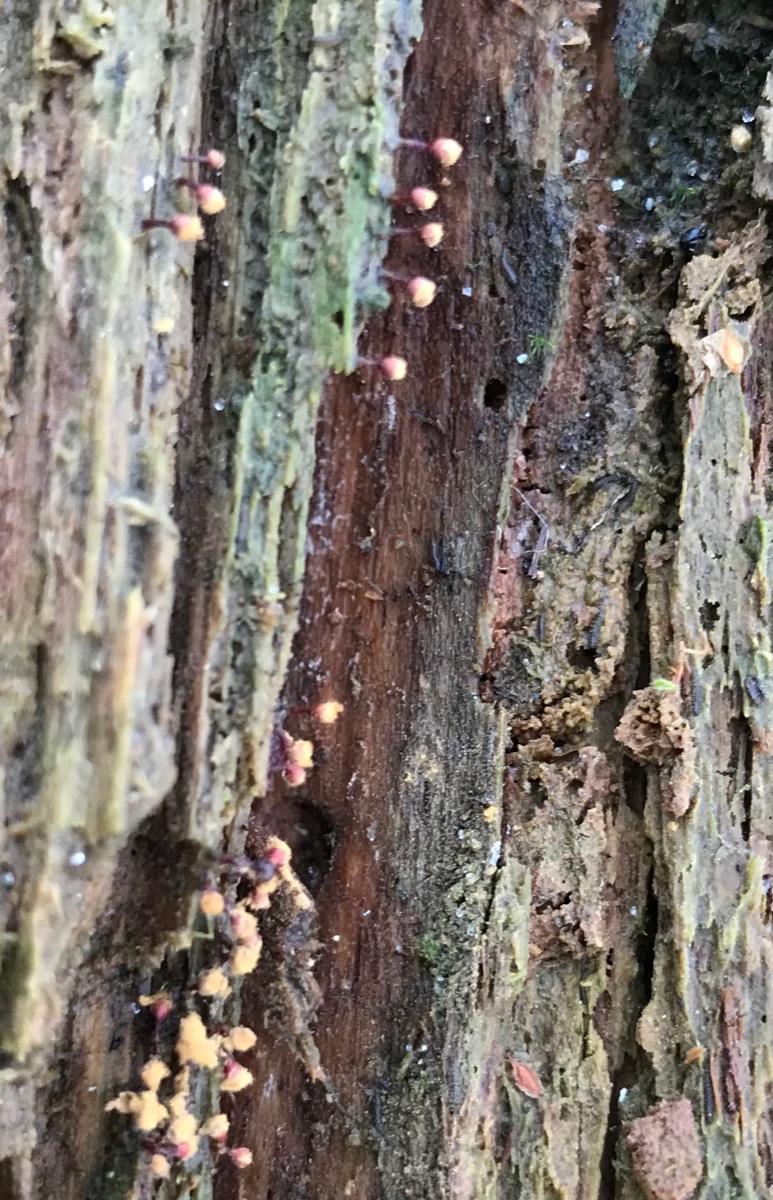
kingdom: Protozoa
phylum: Mycetozoa
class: Myxomycetes
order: Trichiales
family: Trichiaceae
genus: Trichia
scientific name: Trichia botrytis
